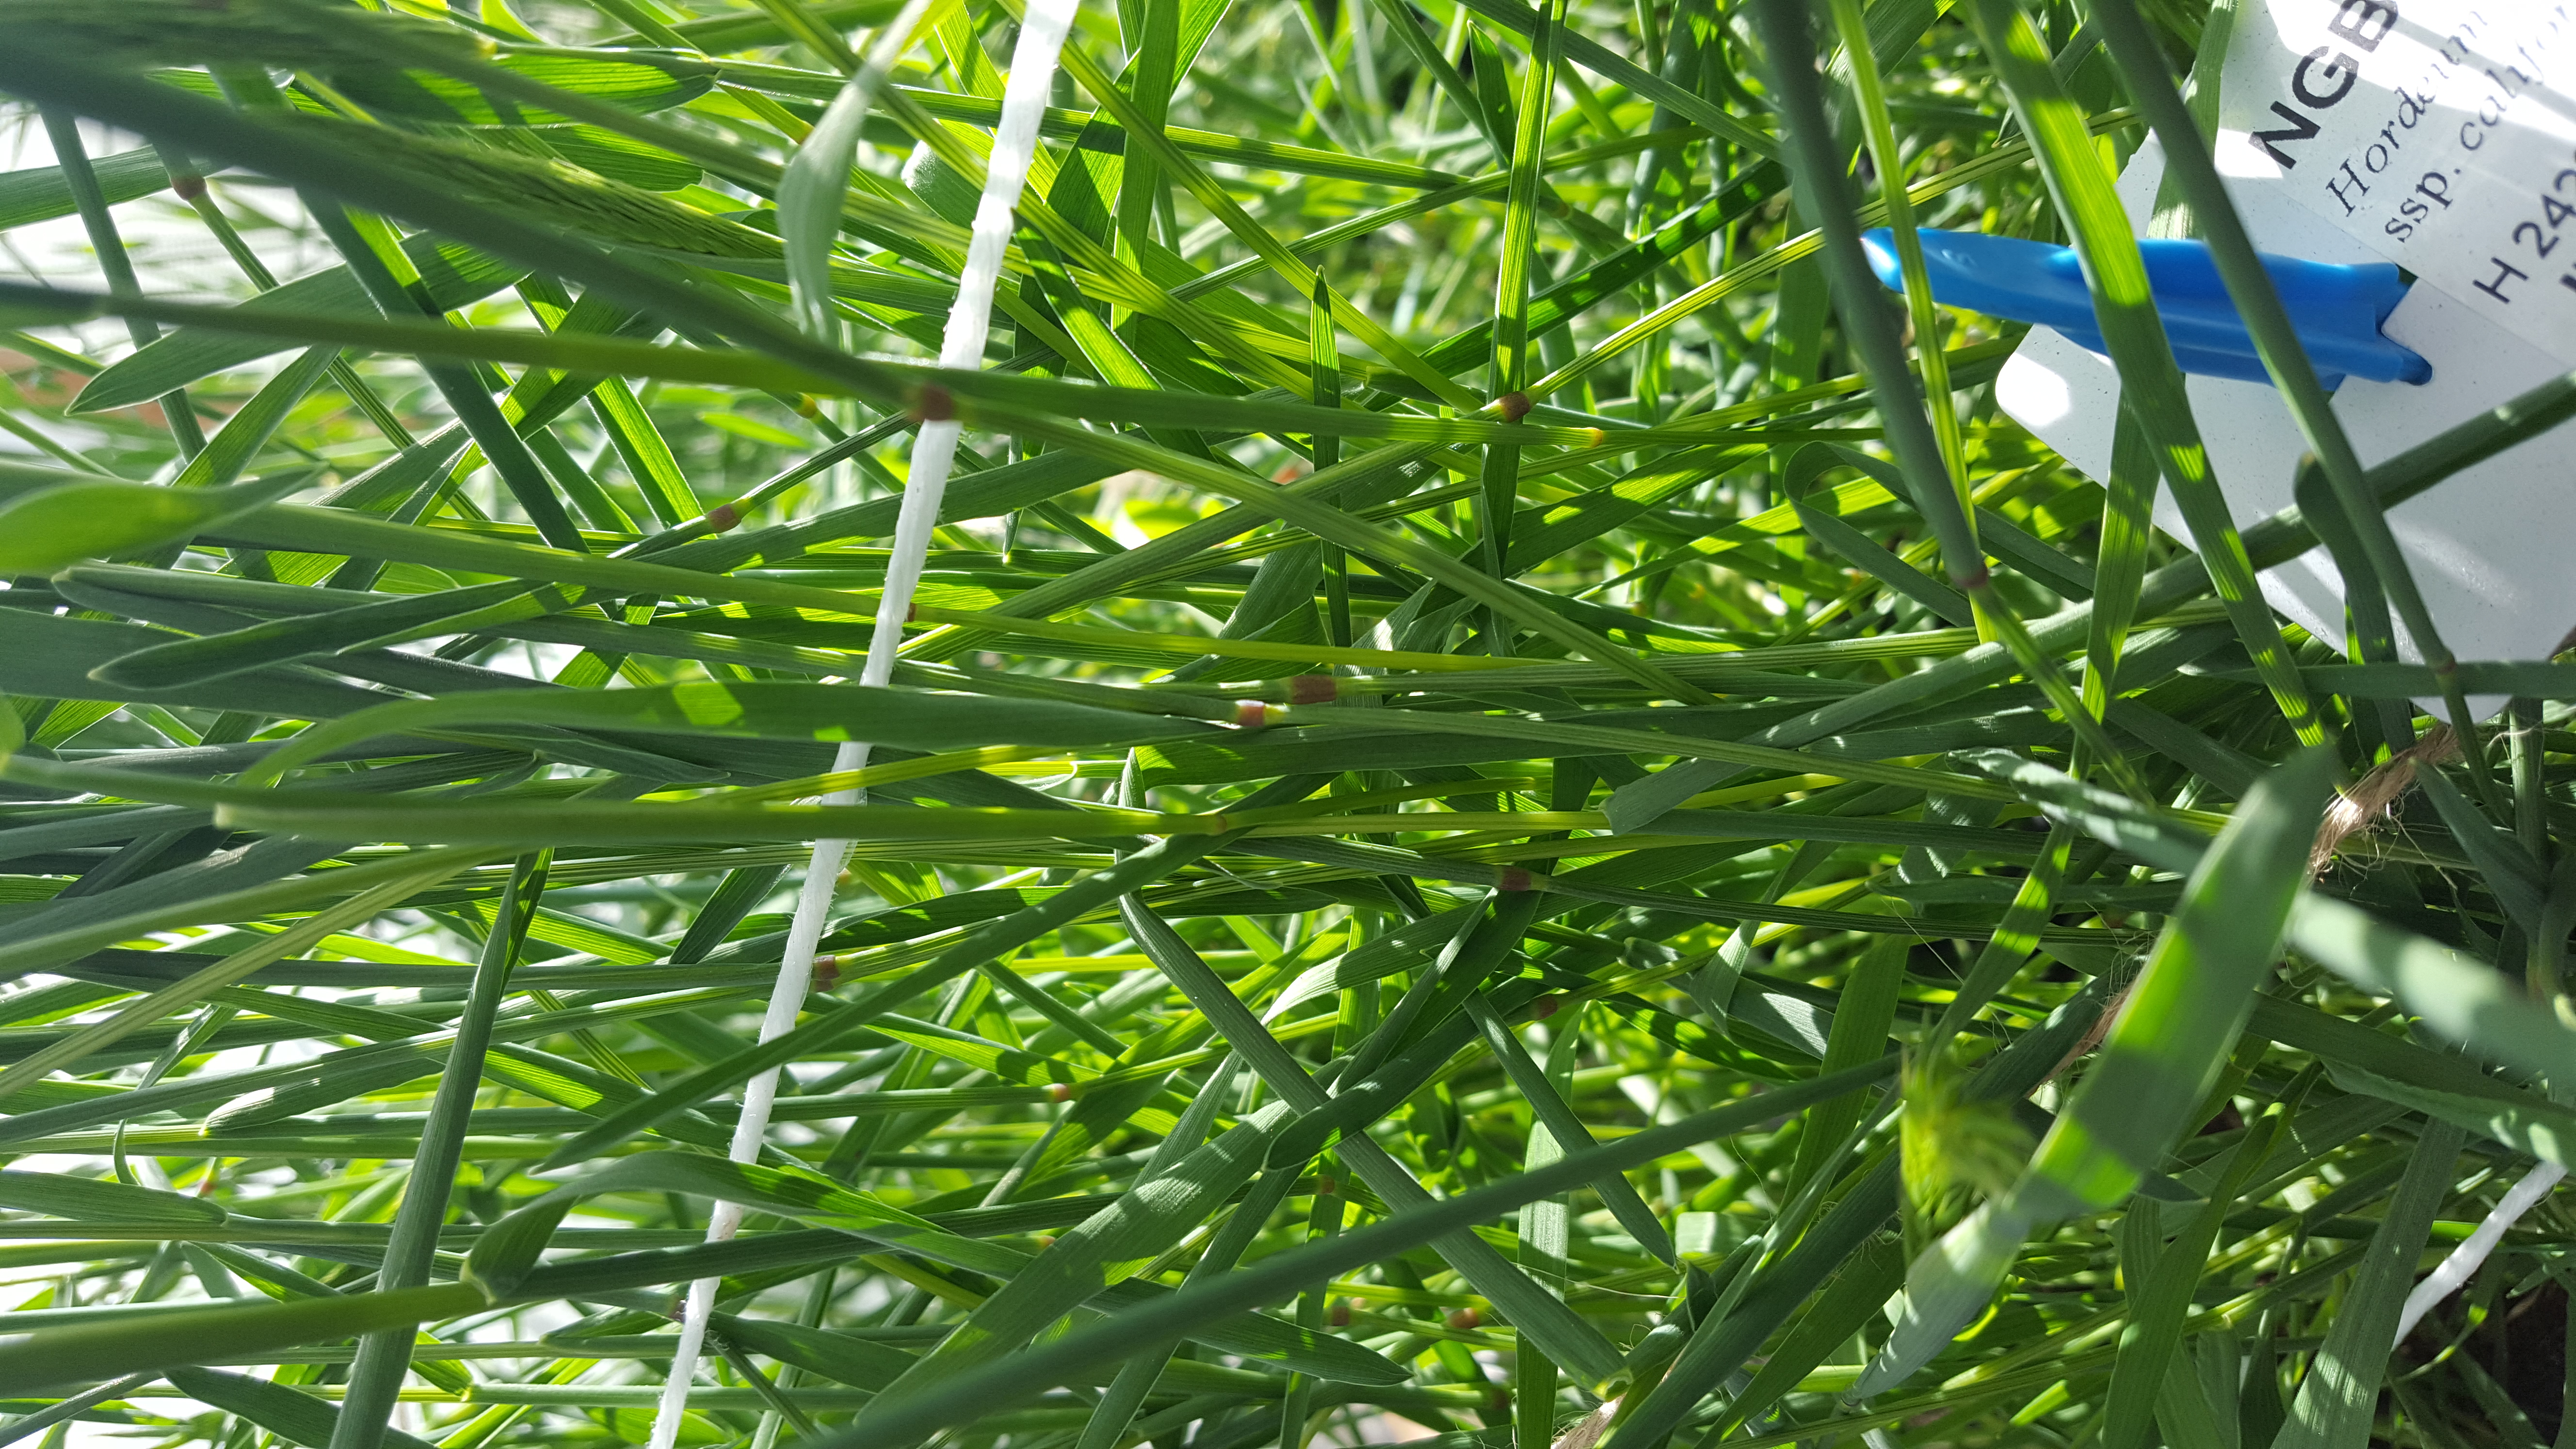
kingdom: Plantae
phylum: Tracheophyta
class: Liliopsida
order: Poales
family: Poaceae
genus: Hordeum
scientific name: Hordeum californicum
